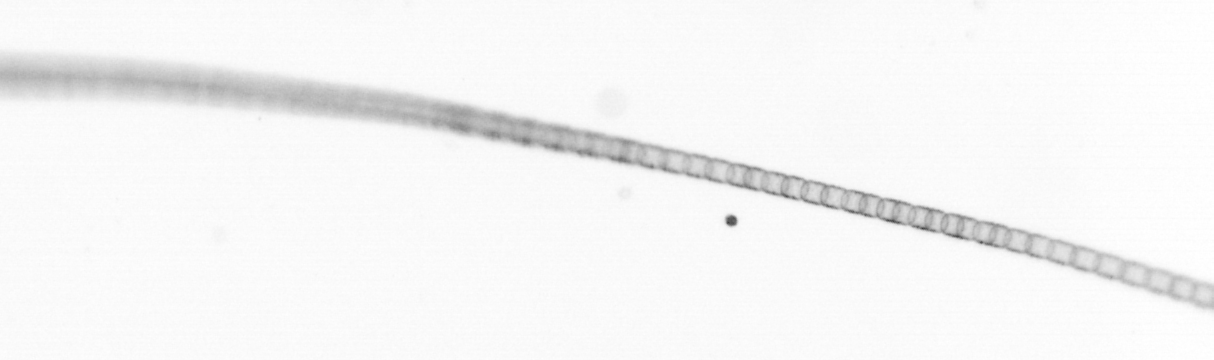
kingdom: Chromista
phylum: Ochrophyta
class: Bacillariophyceae
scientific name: Bacillariophyceae
